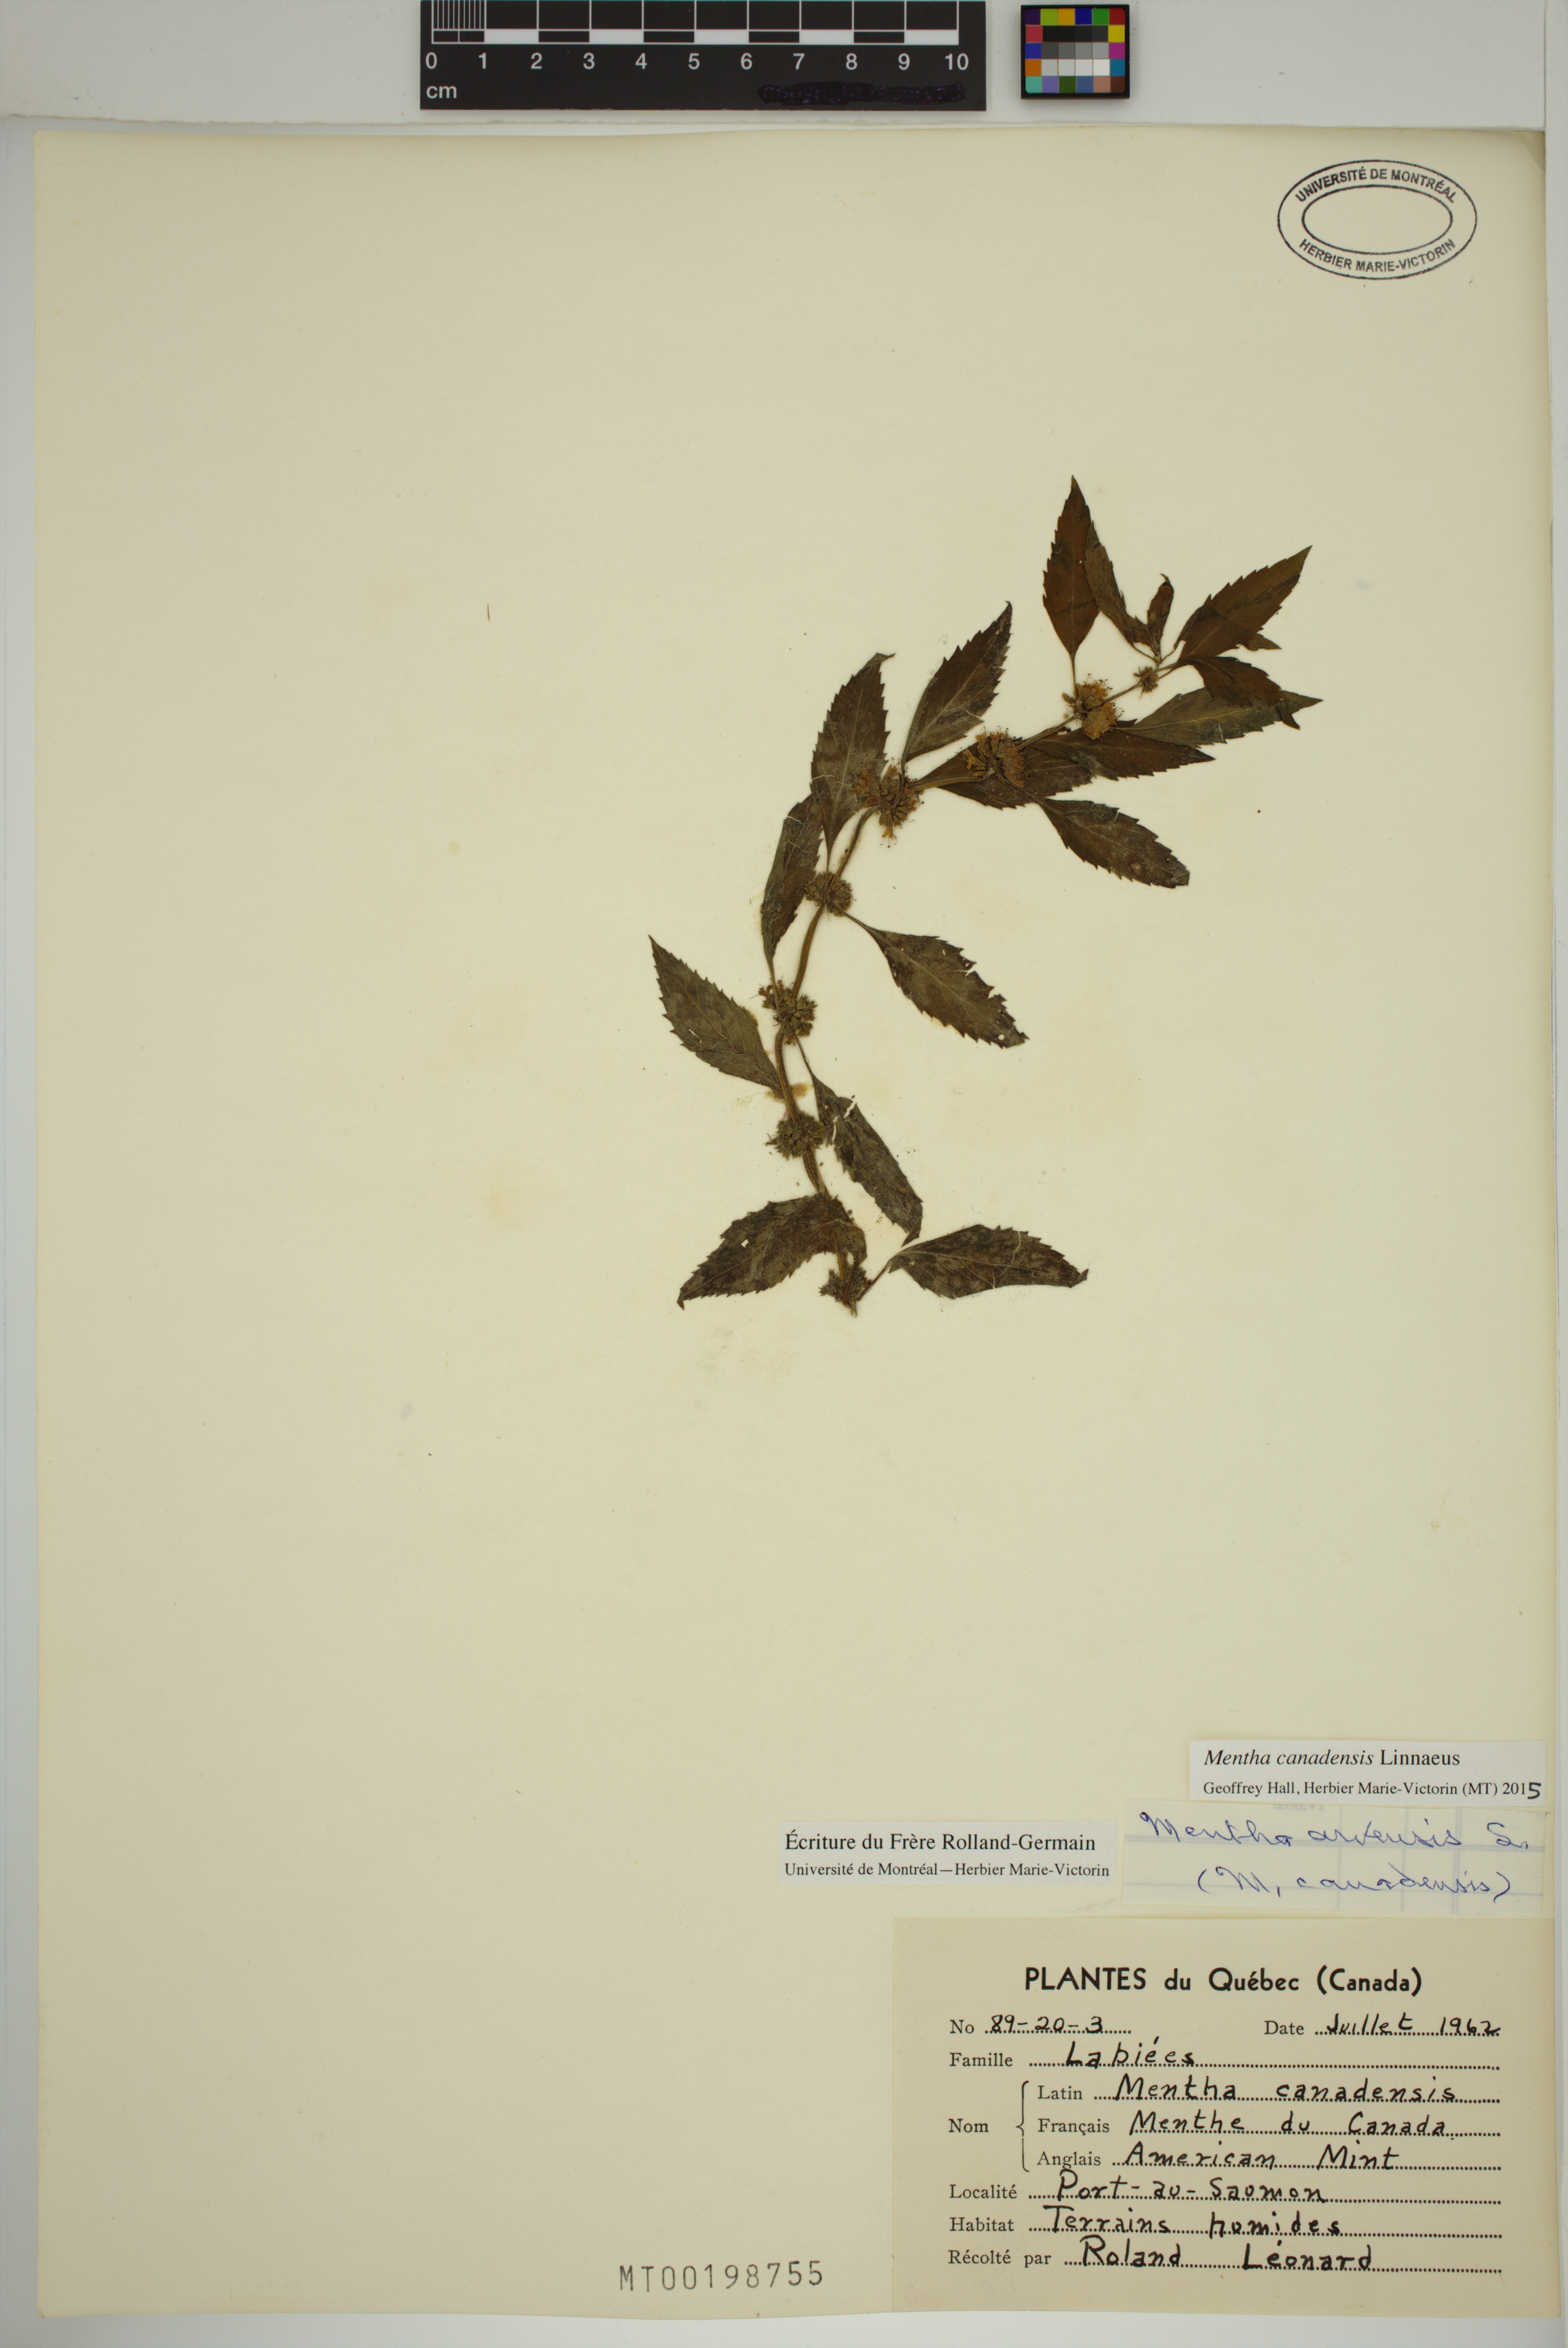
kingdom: Plantae
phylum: Tracheophyta
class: Magnoliopsida
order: Lamiales
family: Lamiaceae
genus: Mentha
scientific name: Mentha canadensis
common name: American corn mint
